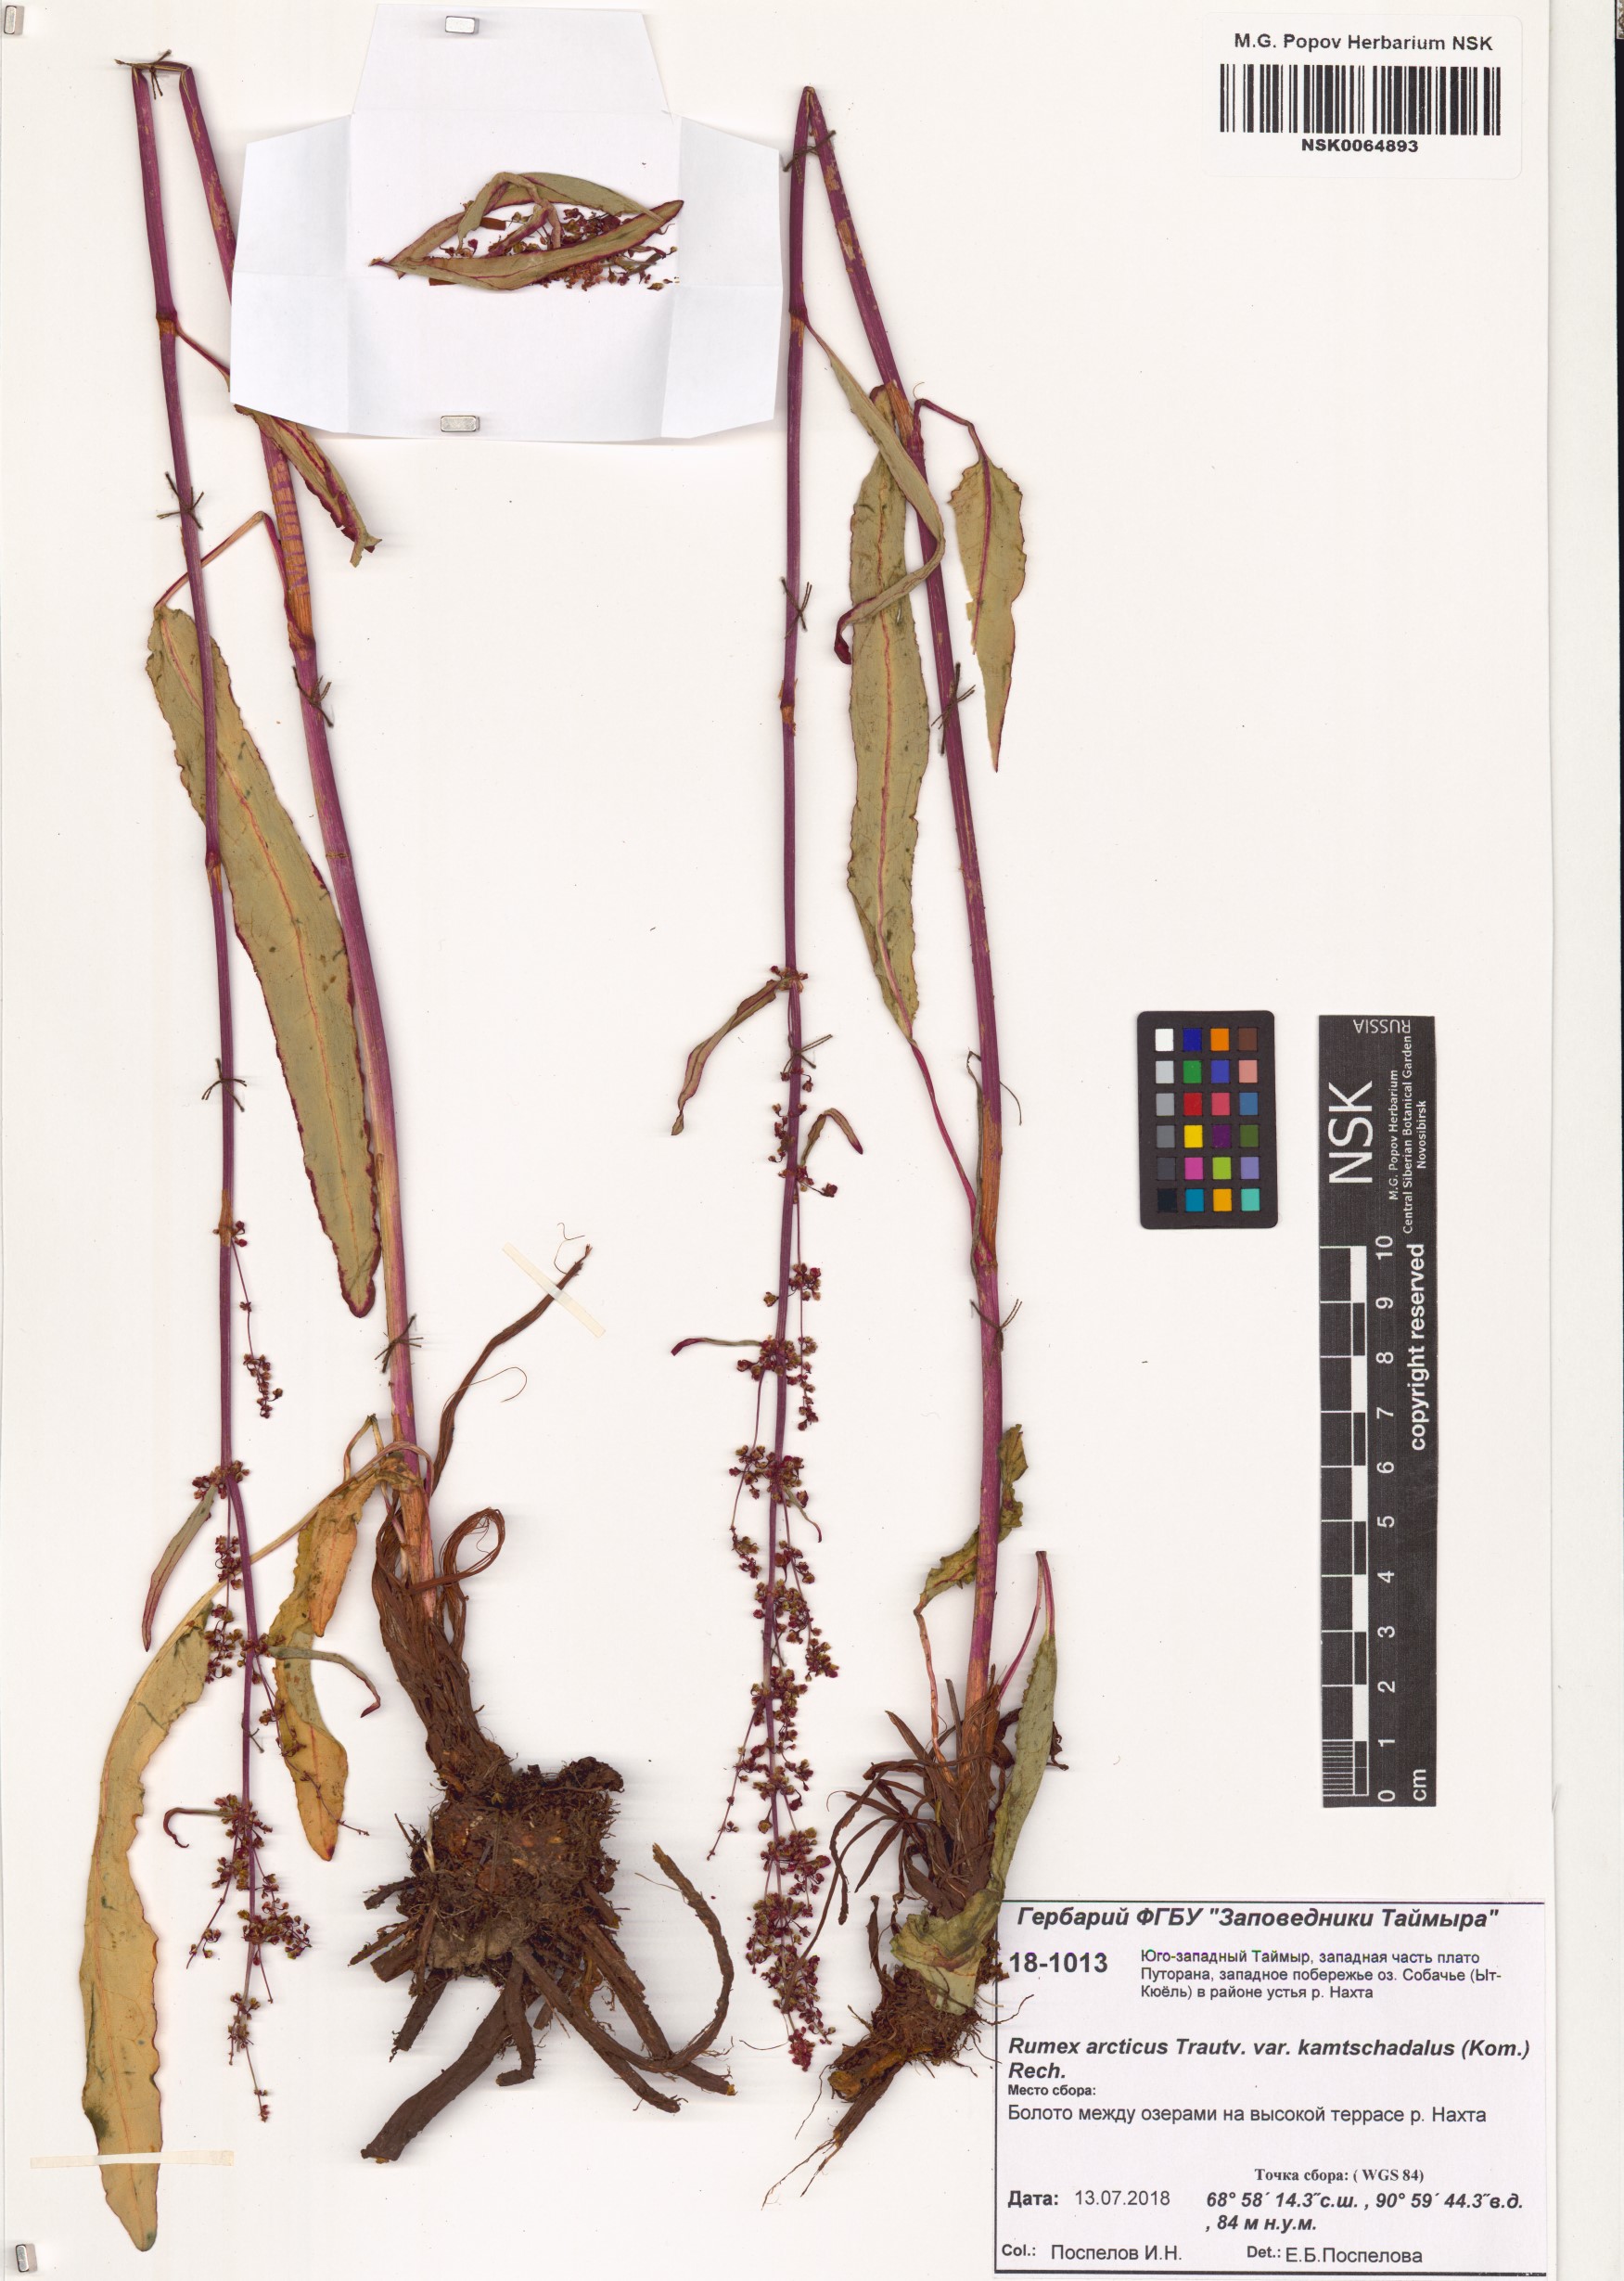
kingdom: Plantae
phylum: Tracheophyta
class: Magnoliopsida
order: Caryophyllales
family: Polygonaceae
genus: Rumex
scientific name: Rumex arcticus
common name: Arctic dock
